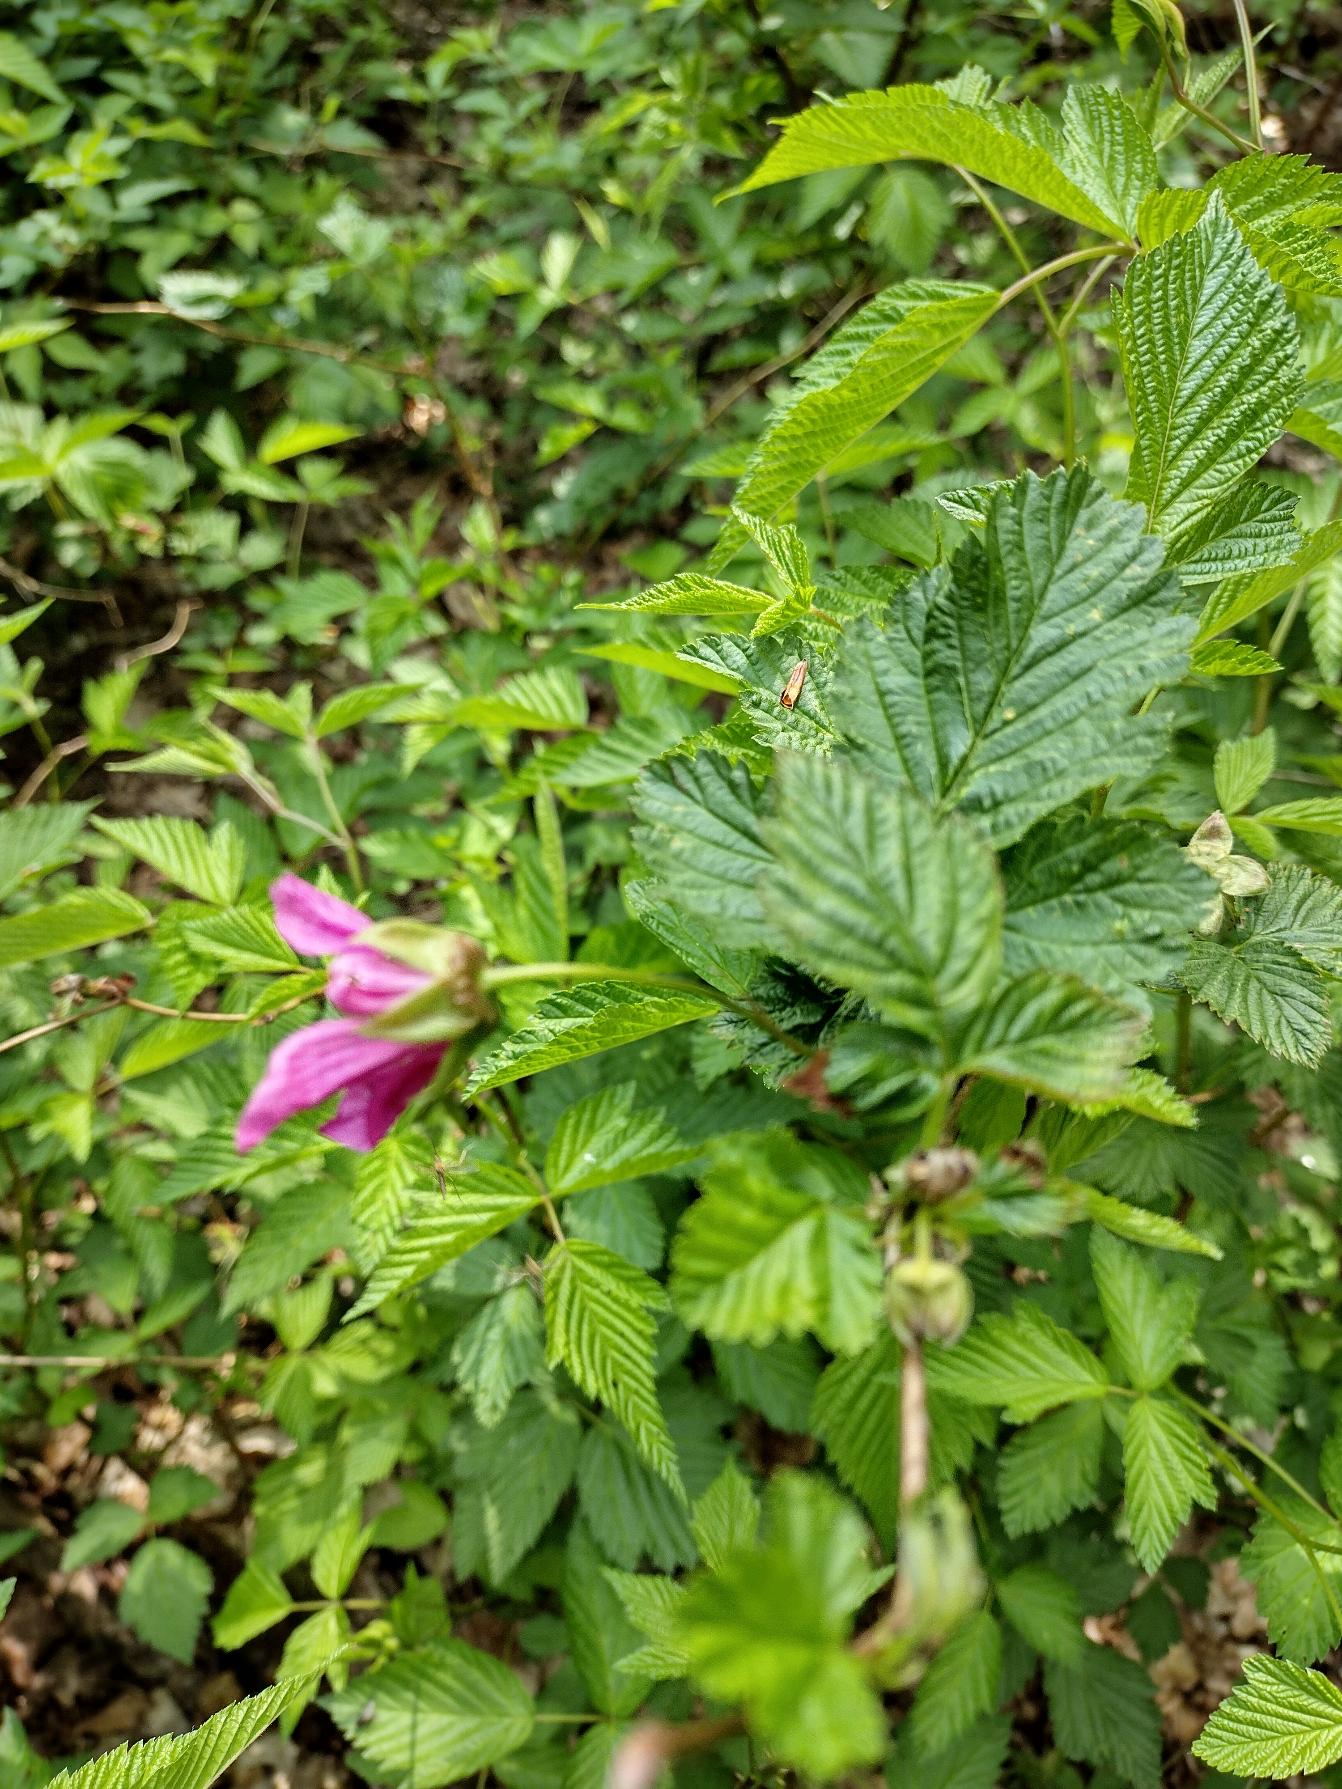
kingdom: Plantae
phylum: Tracheophyta
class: Magnoliopsida
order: Rosales
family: Rosaceae
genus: Rubus
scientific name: Rubus spectabilis
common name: Laksebær
